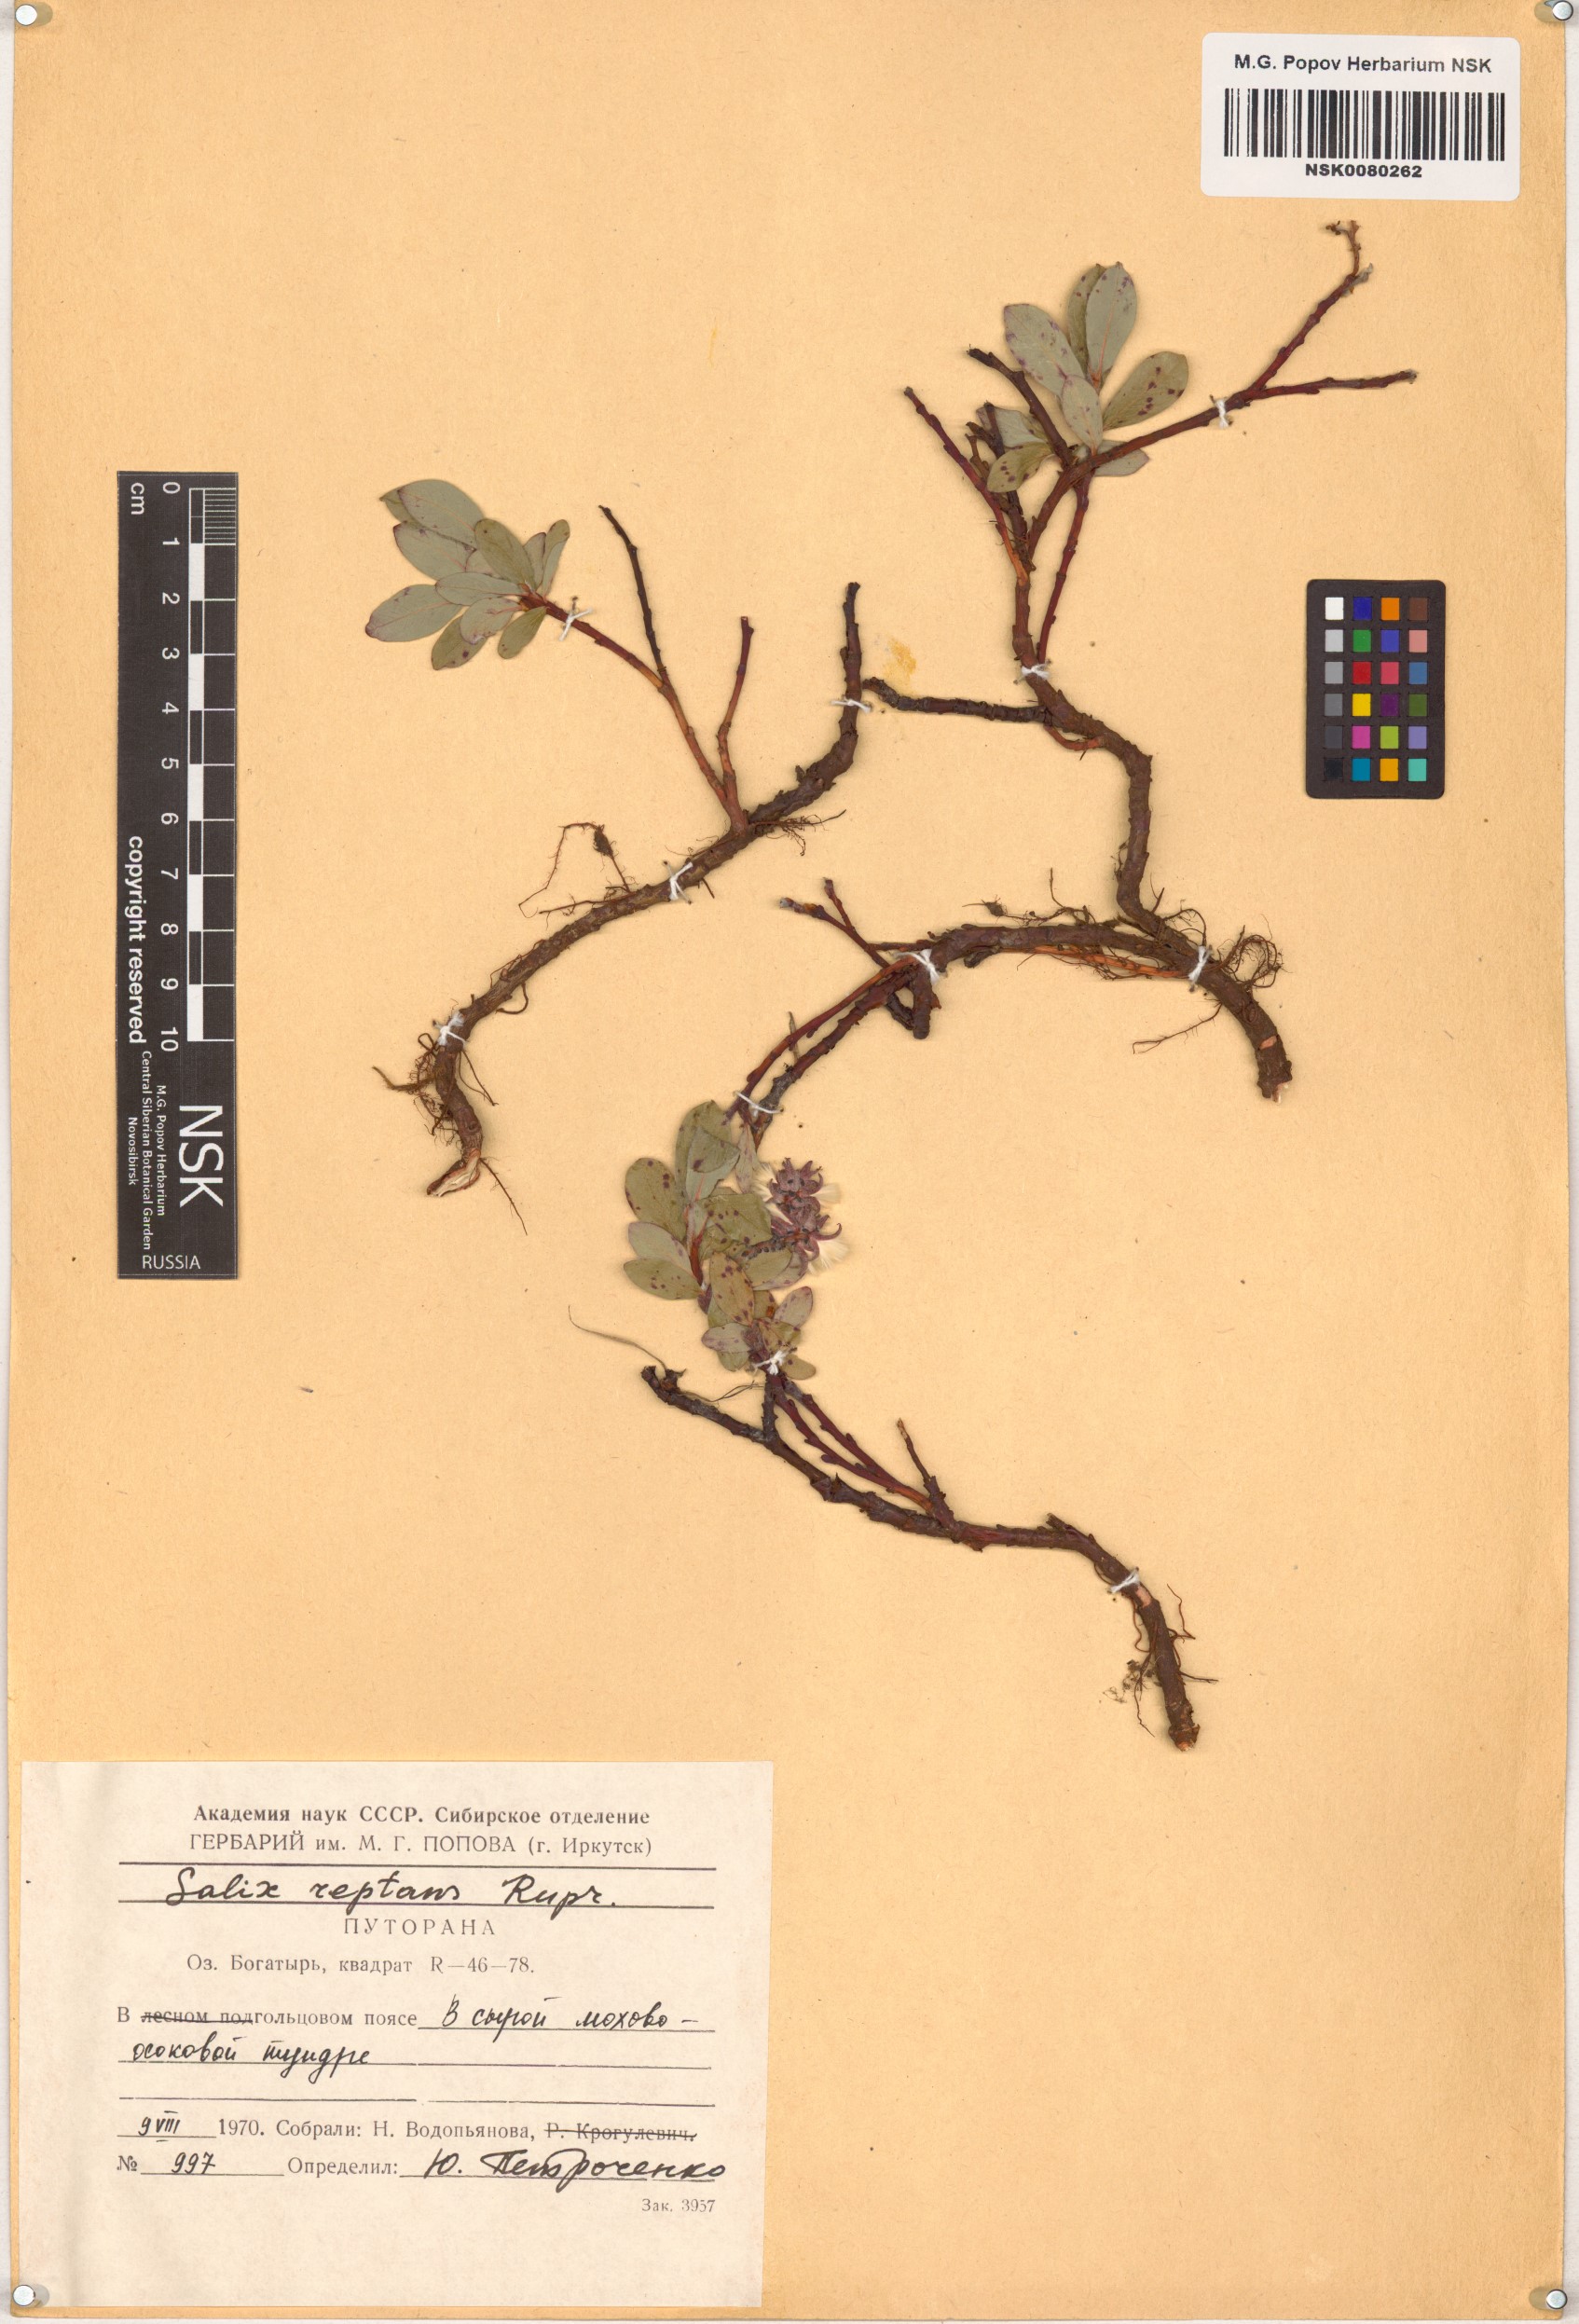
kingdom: Plantae
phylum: Tracheophyta
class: Magnoliopsida
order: Malpighiales
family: Salicaceae
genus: Salix
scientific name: Salix reptans
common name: Arctic creeping willow
